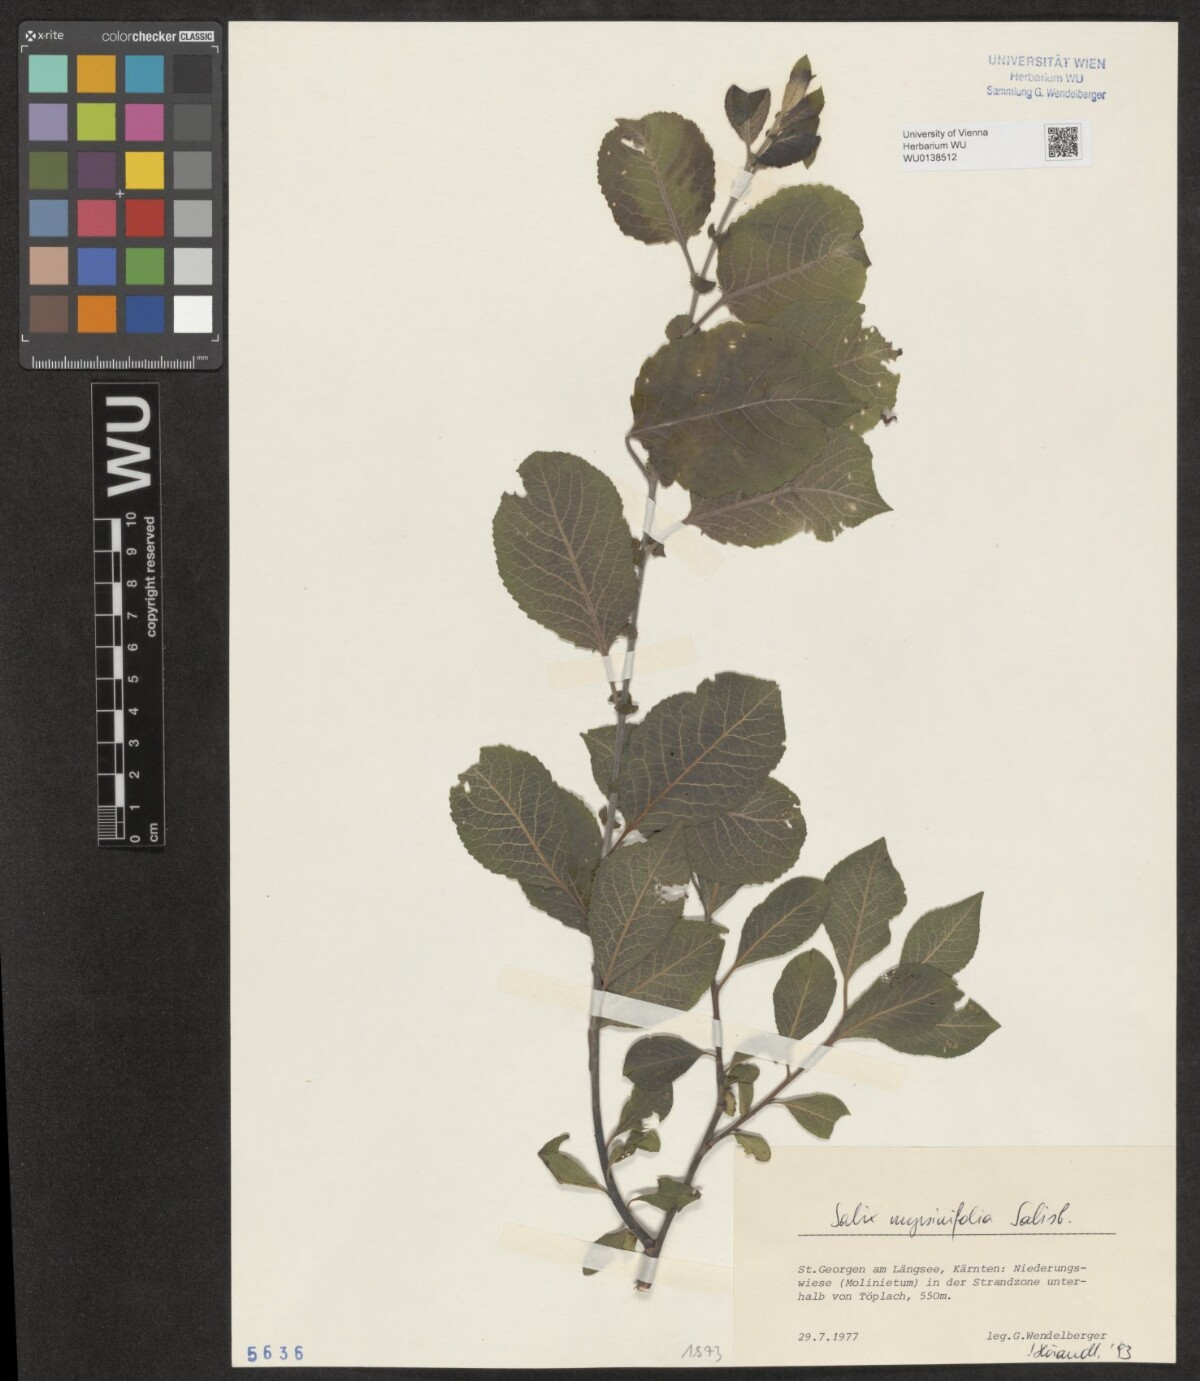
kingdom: Plantae
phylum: Tracheophyta
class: Magnoliopsida
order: Malpighiales
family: Salicaceae
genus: Salix
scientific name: Salix myrsinifolia
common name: Dark-leaved willow
